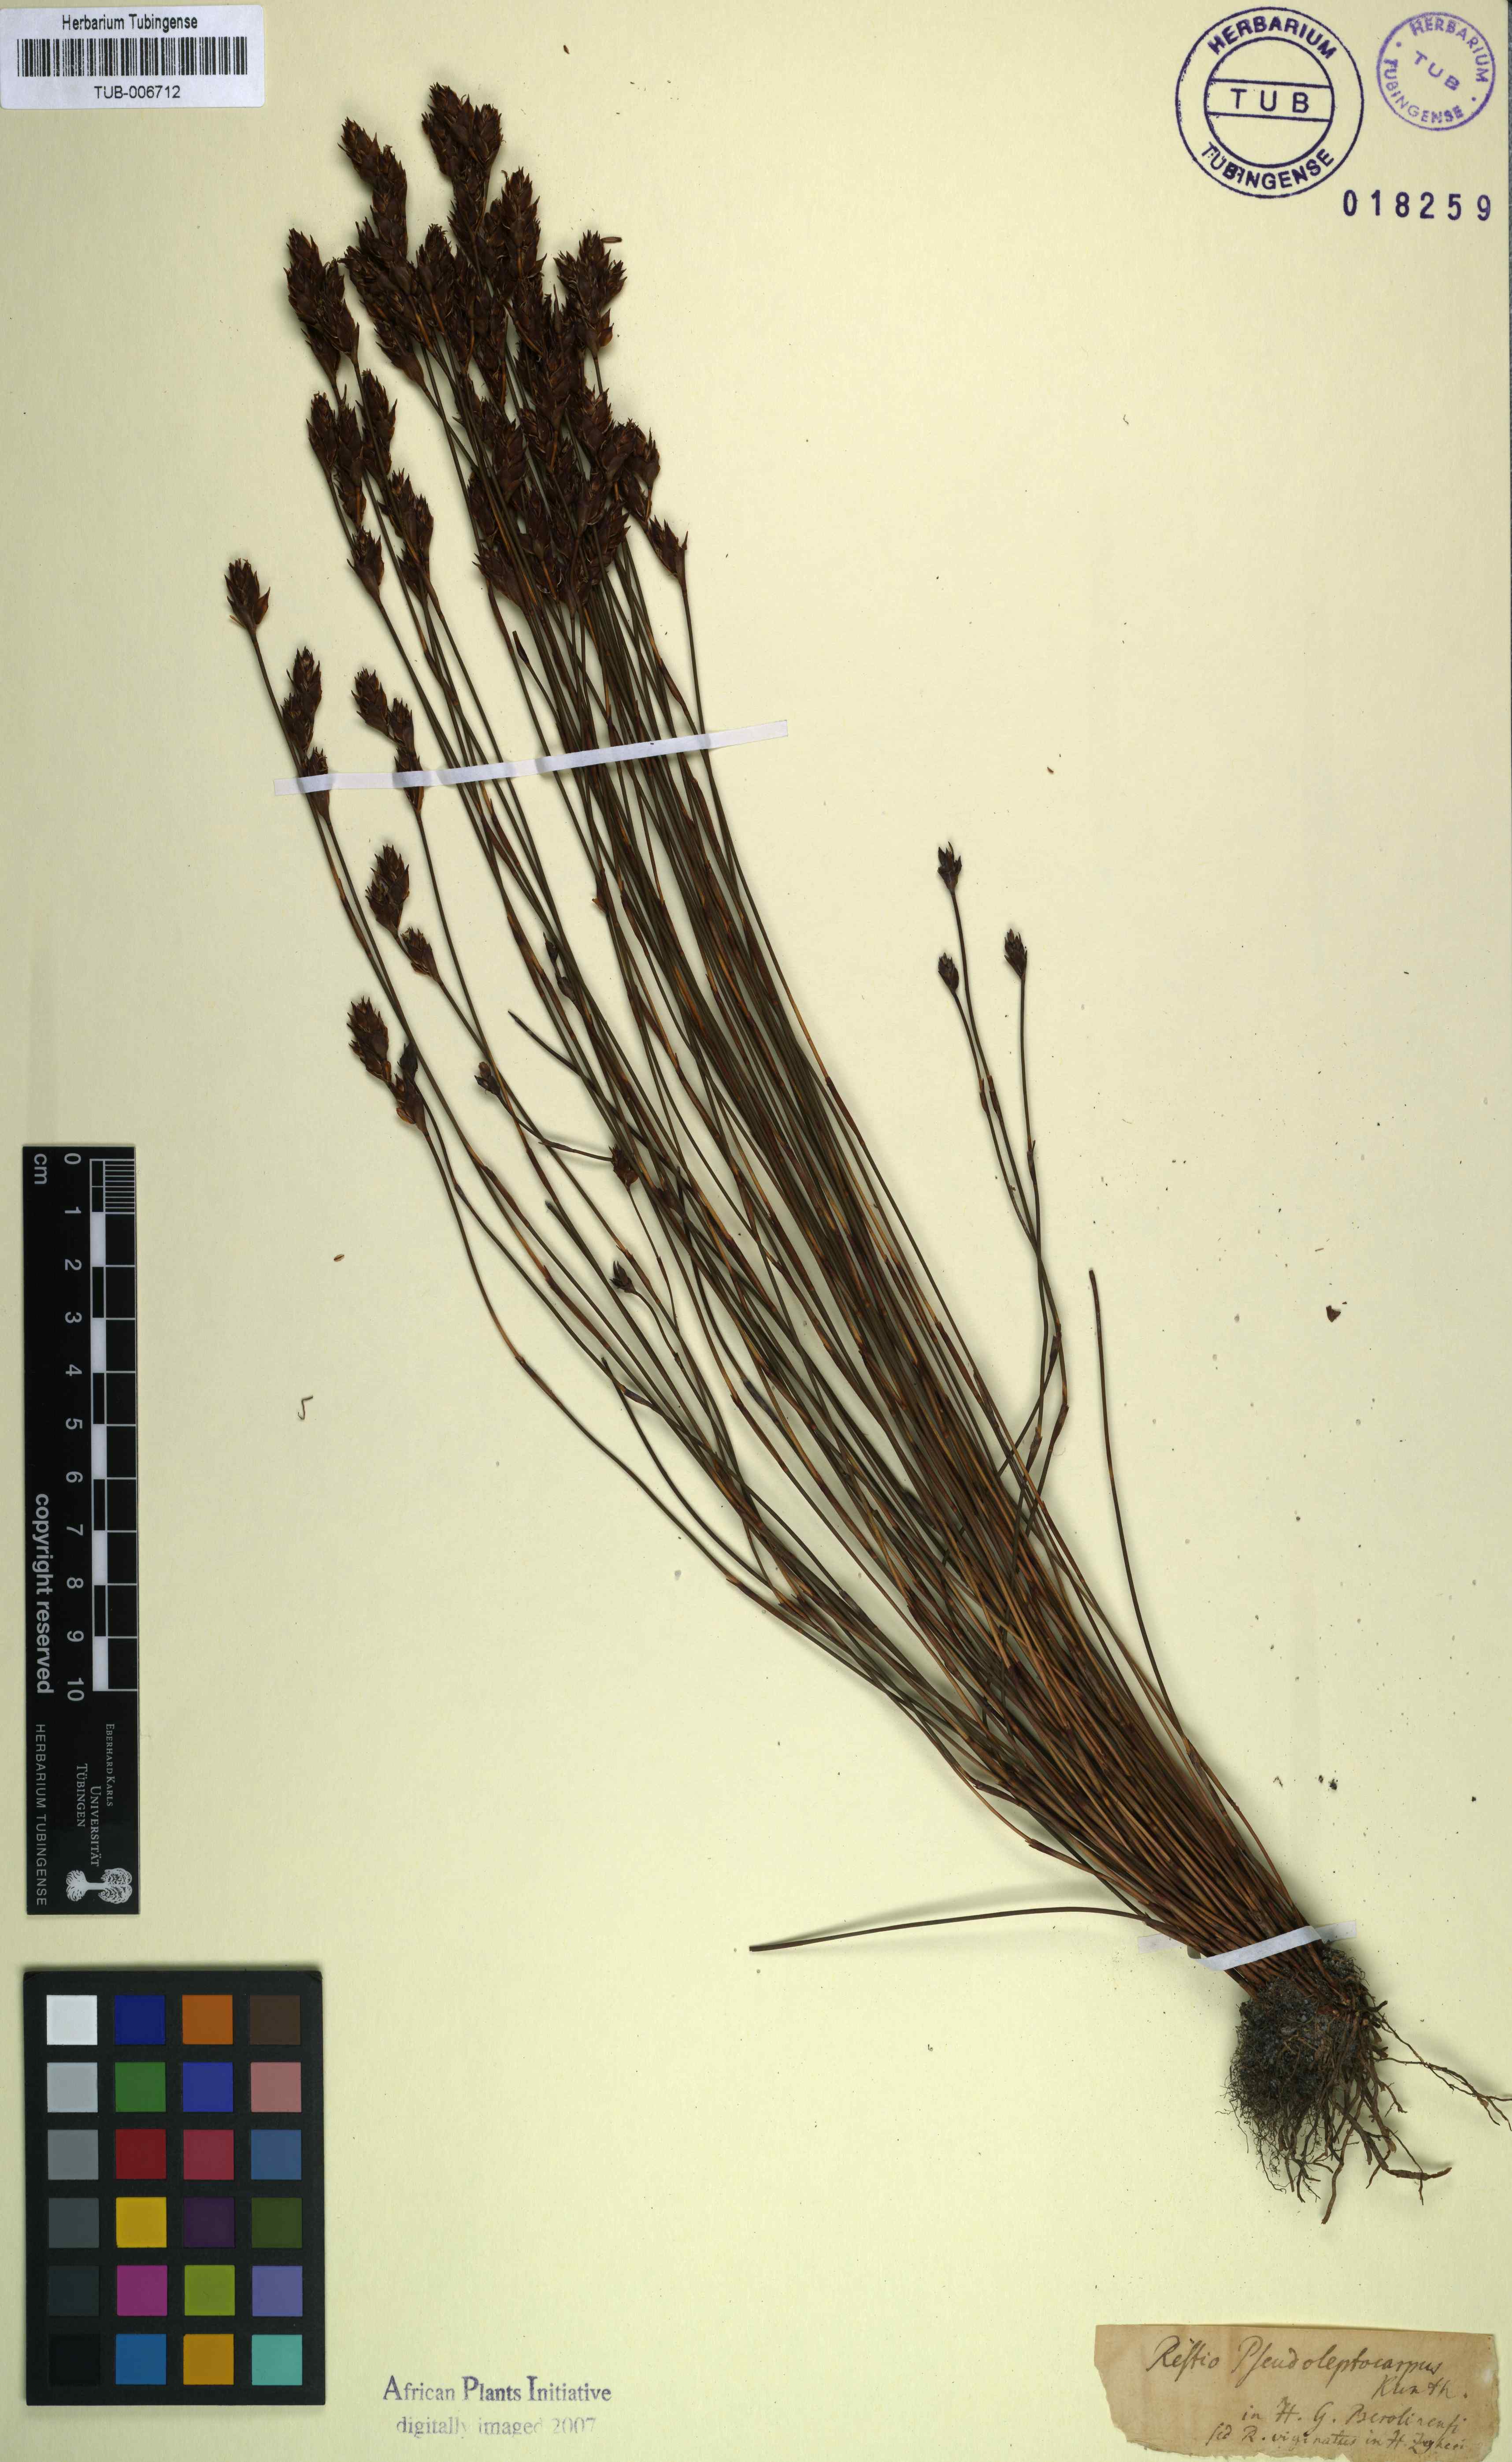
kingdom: Plantae
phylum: Tracheophyta
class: Liliopsida
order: Poales
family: Restionaceae
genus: Restio
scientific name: Restio bifidus
